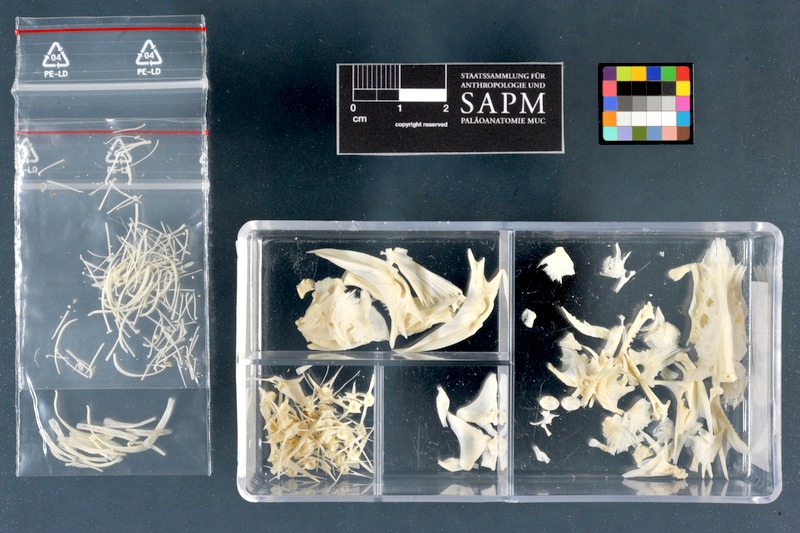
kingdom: Animalia
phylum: Chordata
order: Siluriformes
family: Ictaluridae
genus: Ameiurus
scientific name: Ameiurus nebulosus
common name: Brown bullhead
